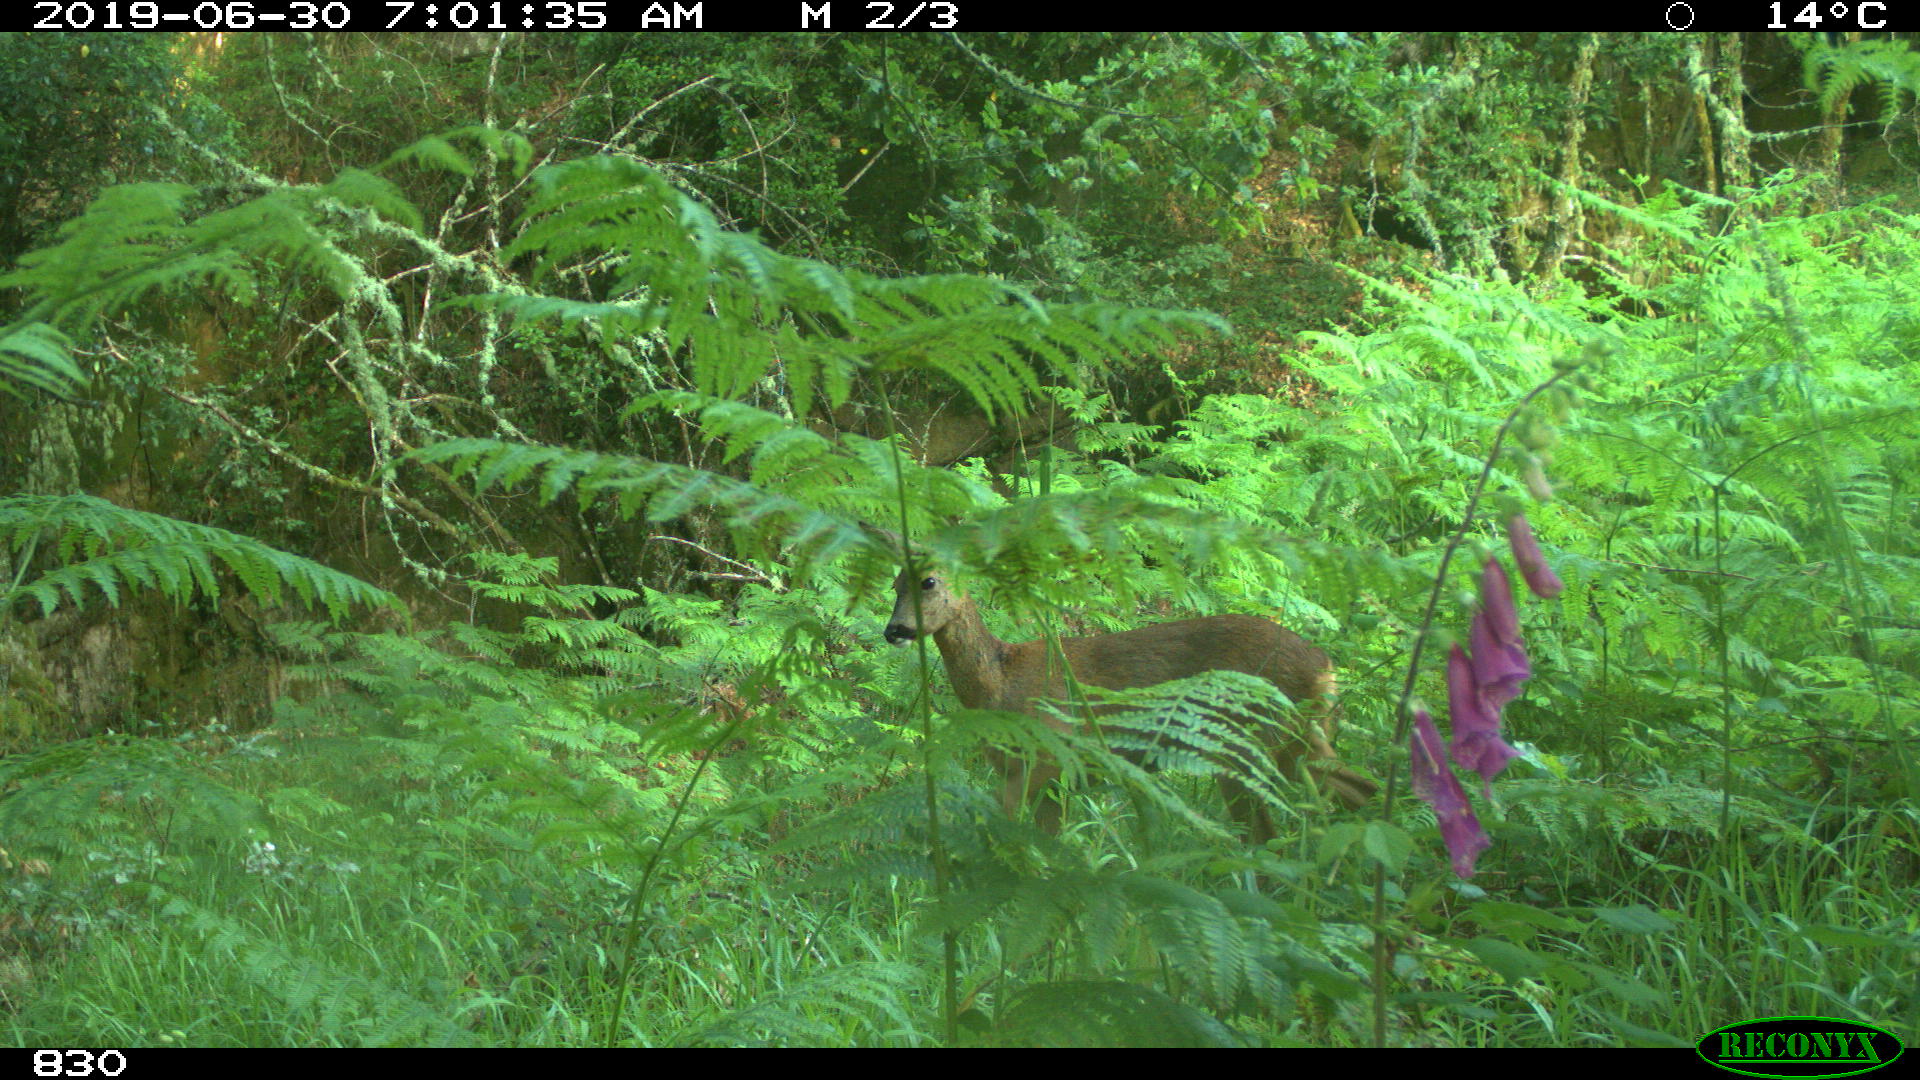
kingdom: Animalia
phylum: Chordata
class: Mammalia
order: Artiodactyla
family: Cervidae
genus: Capreolus
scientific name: Capreolus capreolus
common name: Western roe deer
